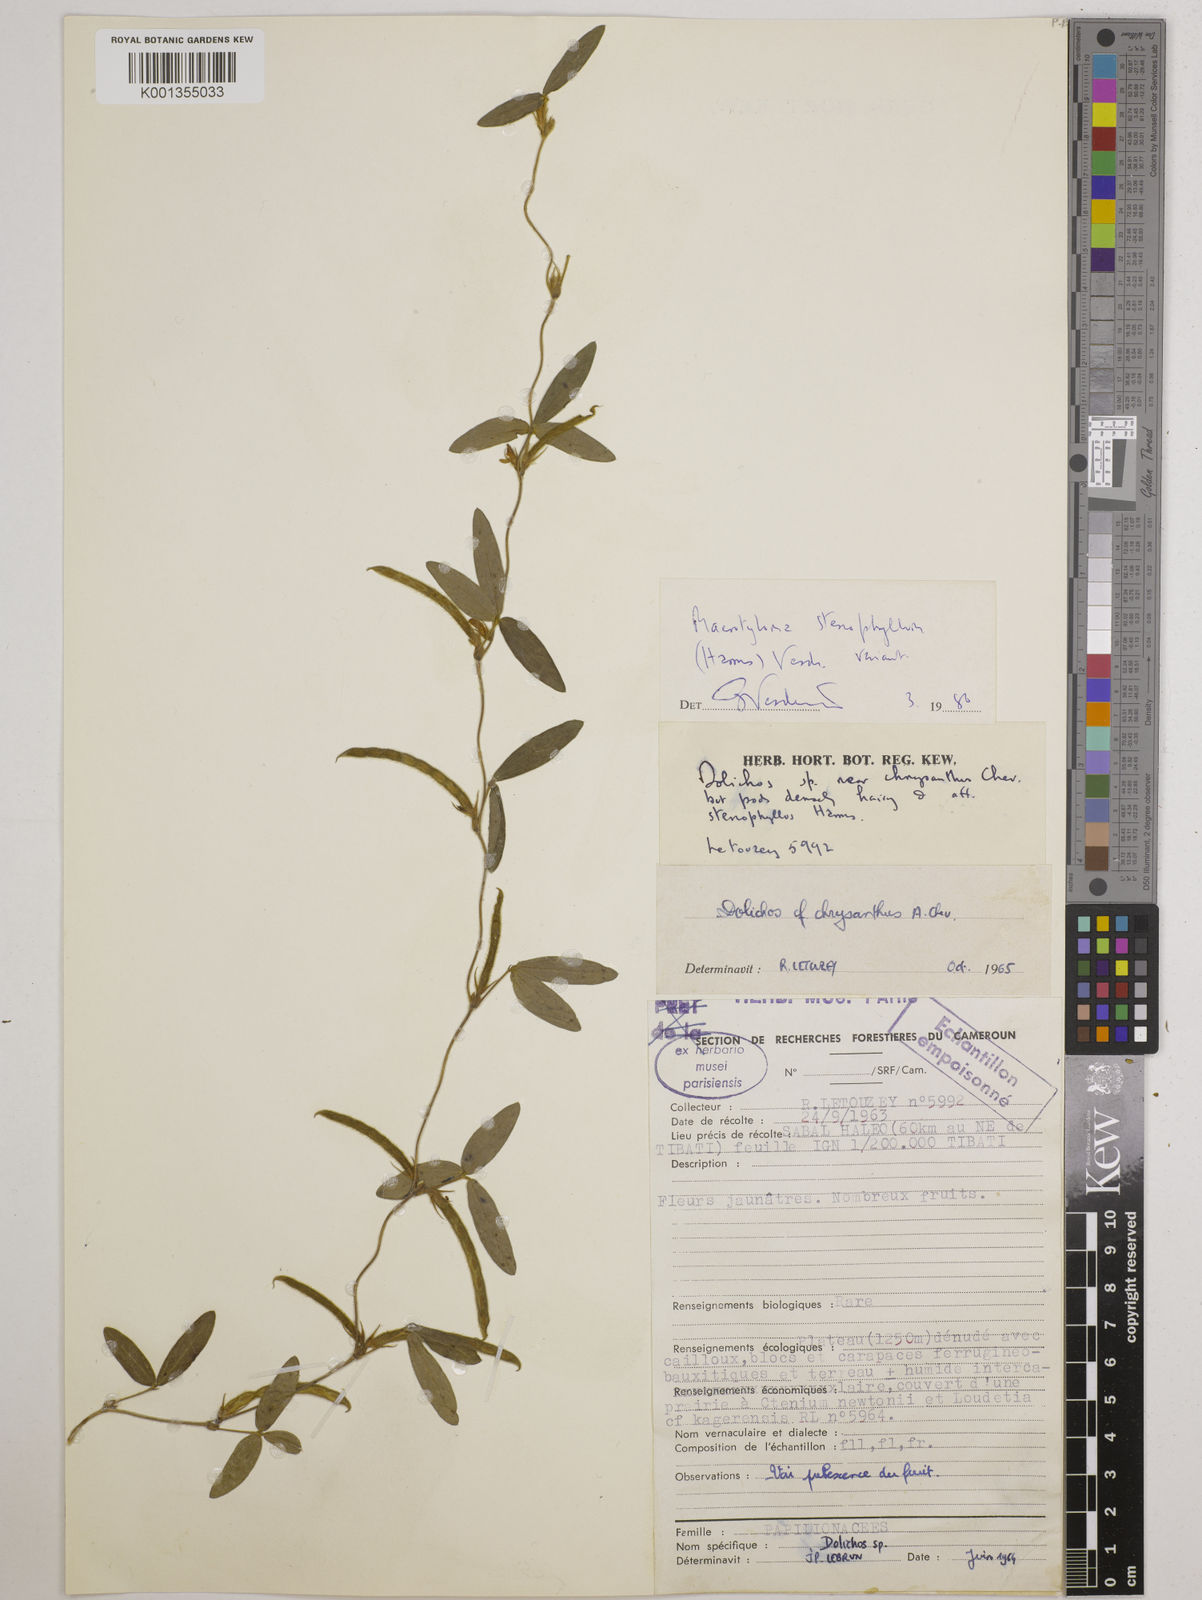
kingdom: Plantae
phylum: Tracheophyta
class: Magnoliopsida
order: Fabales
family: Fabaceae
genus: Macrotyloma
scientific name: Macrotyloma stenophyllum
